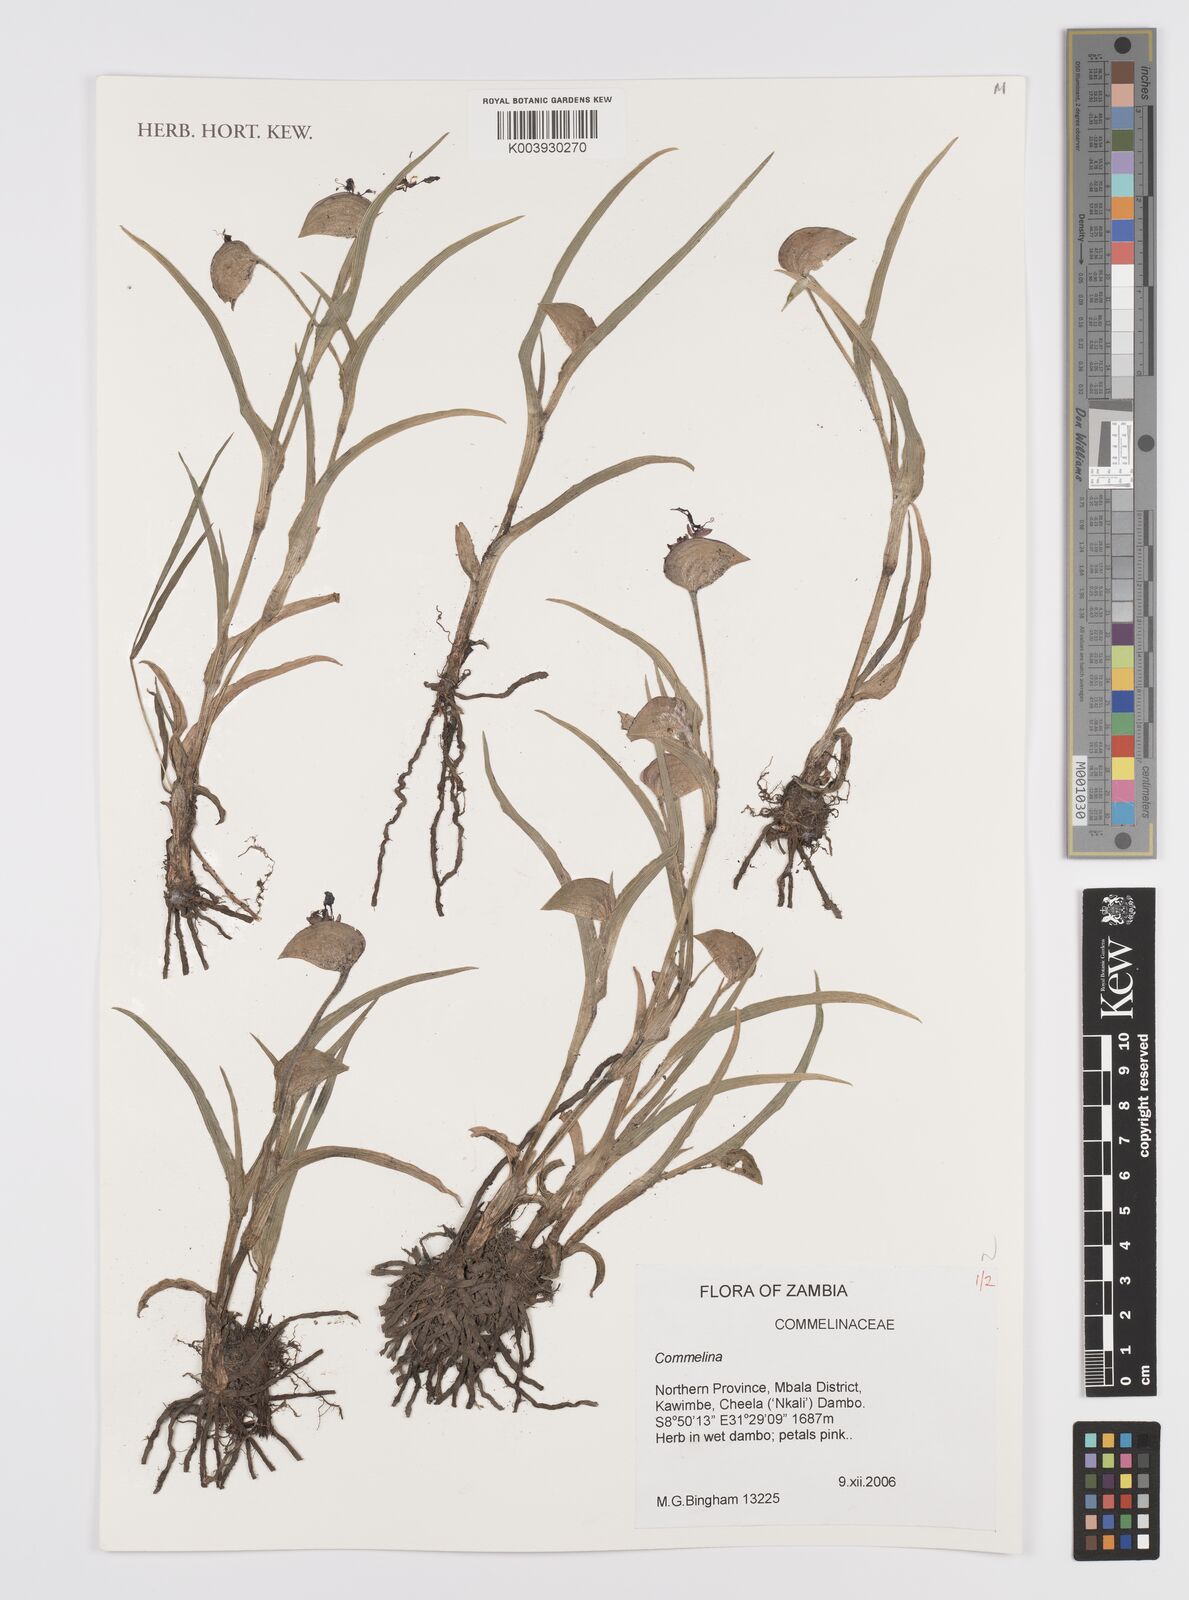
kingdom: Plantae
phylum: Tracheophyta
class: Liliopsida
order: Commelinales
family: Commelinaceae
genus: Commelina
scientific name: Commelina schweinfurthii
